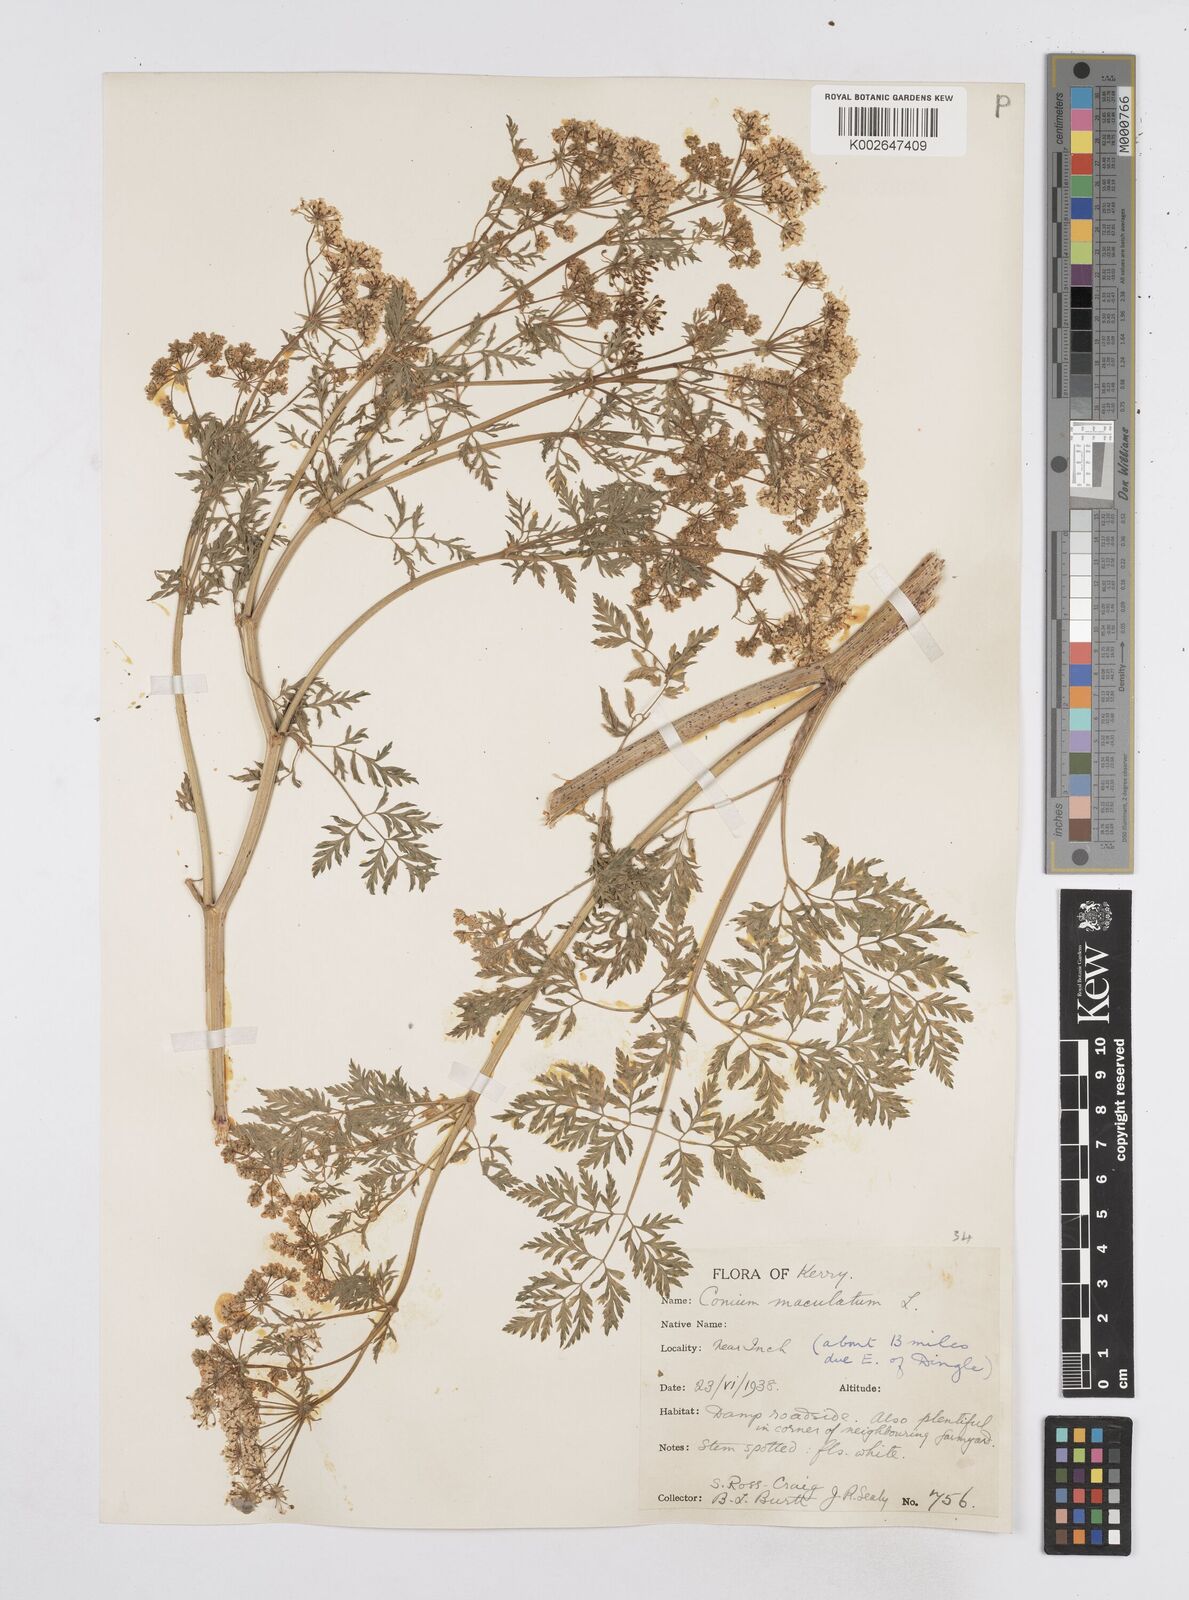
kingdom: Plantae
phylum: Tracheophyta
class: Magnoliopsida
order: Apiales
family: Apiaceae
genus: Conium
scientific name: Conium maculatum
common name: Hemlock
